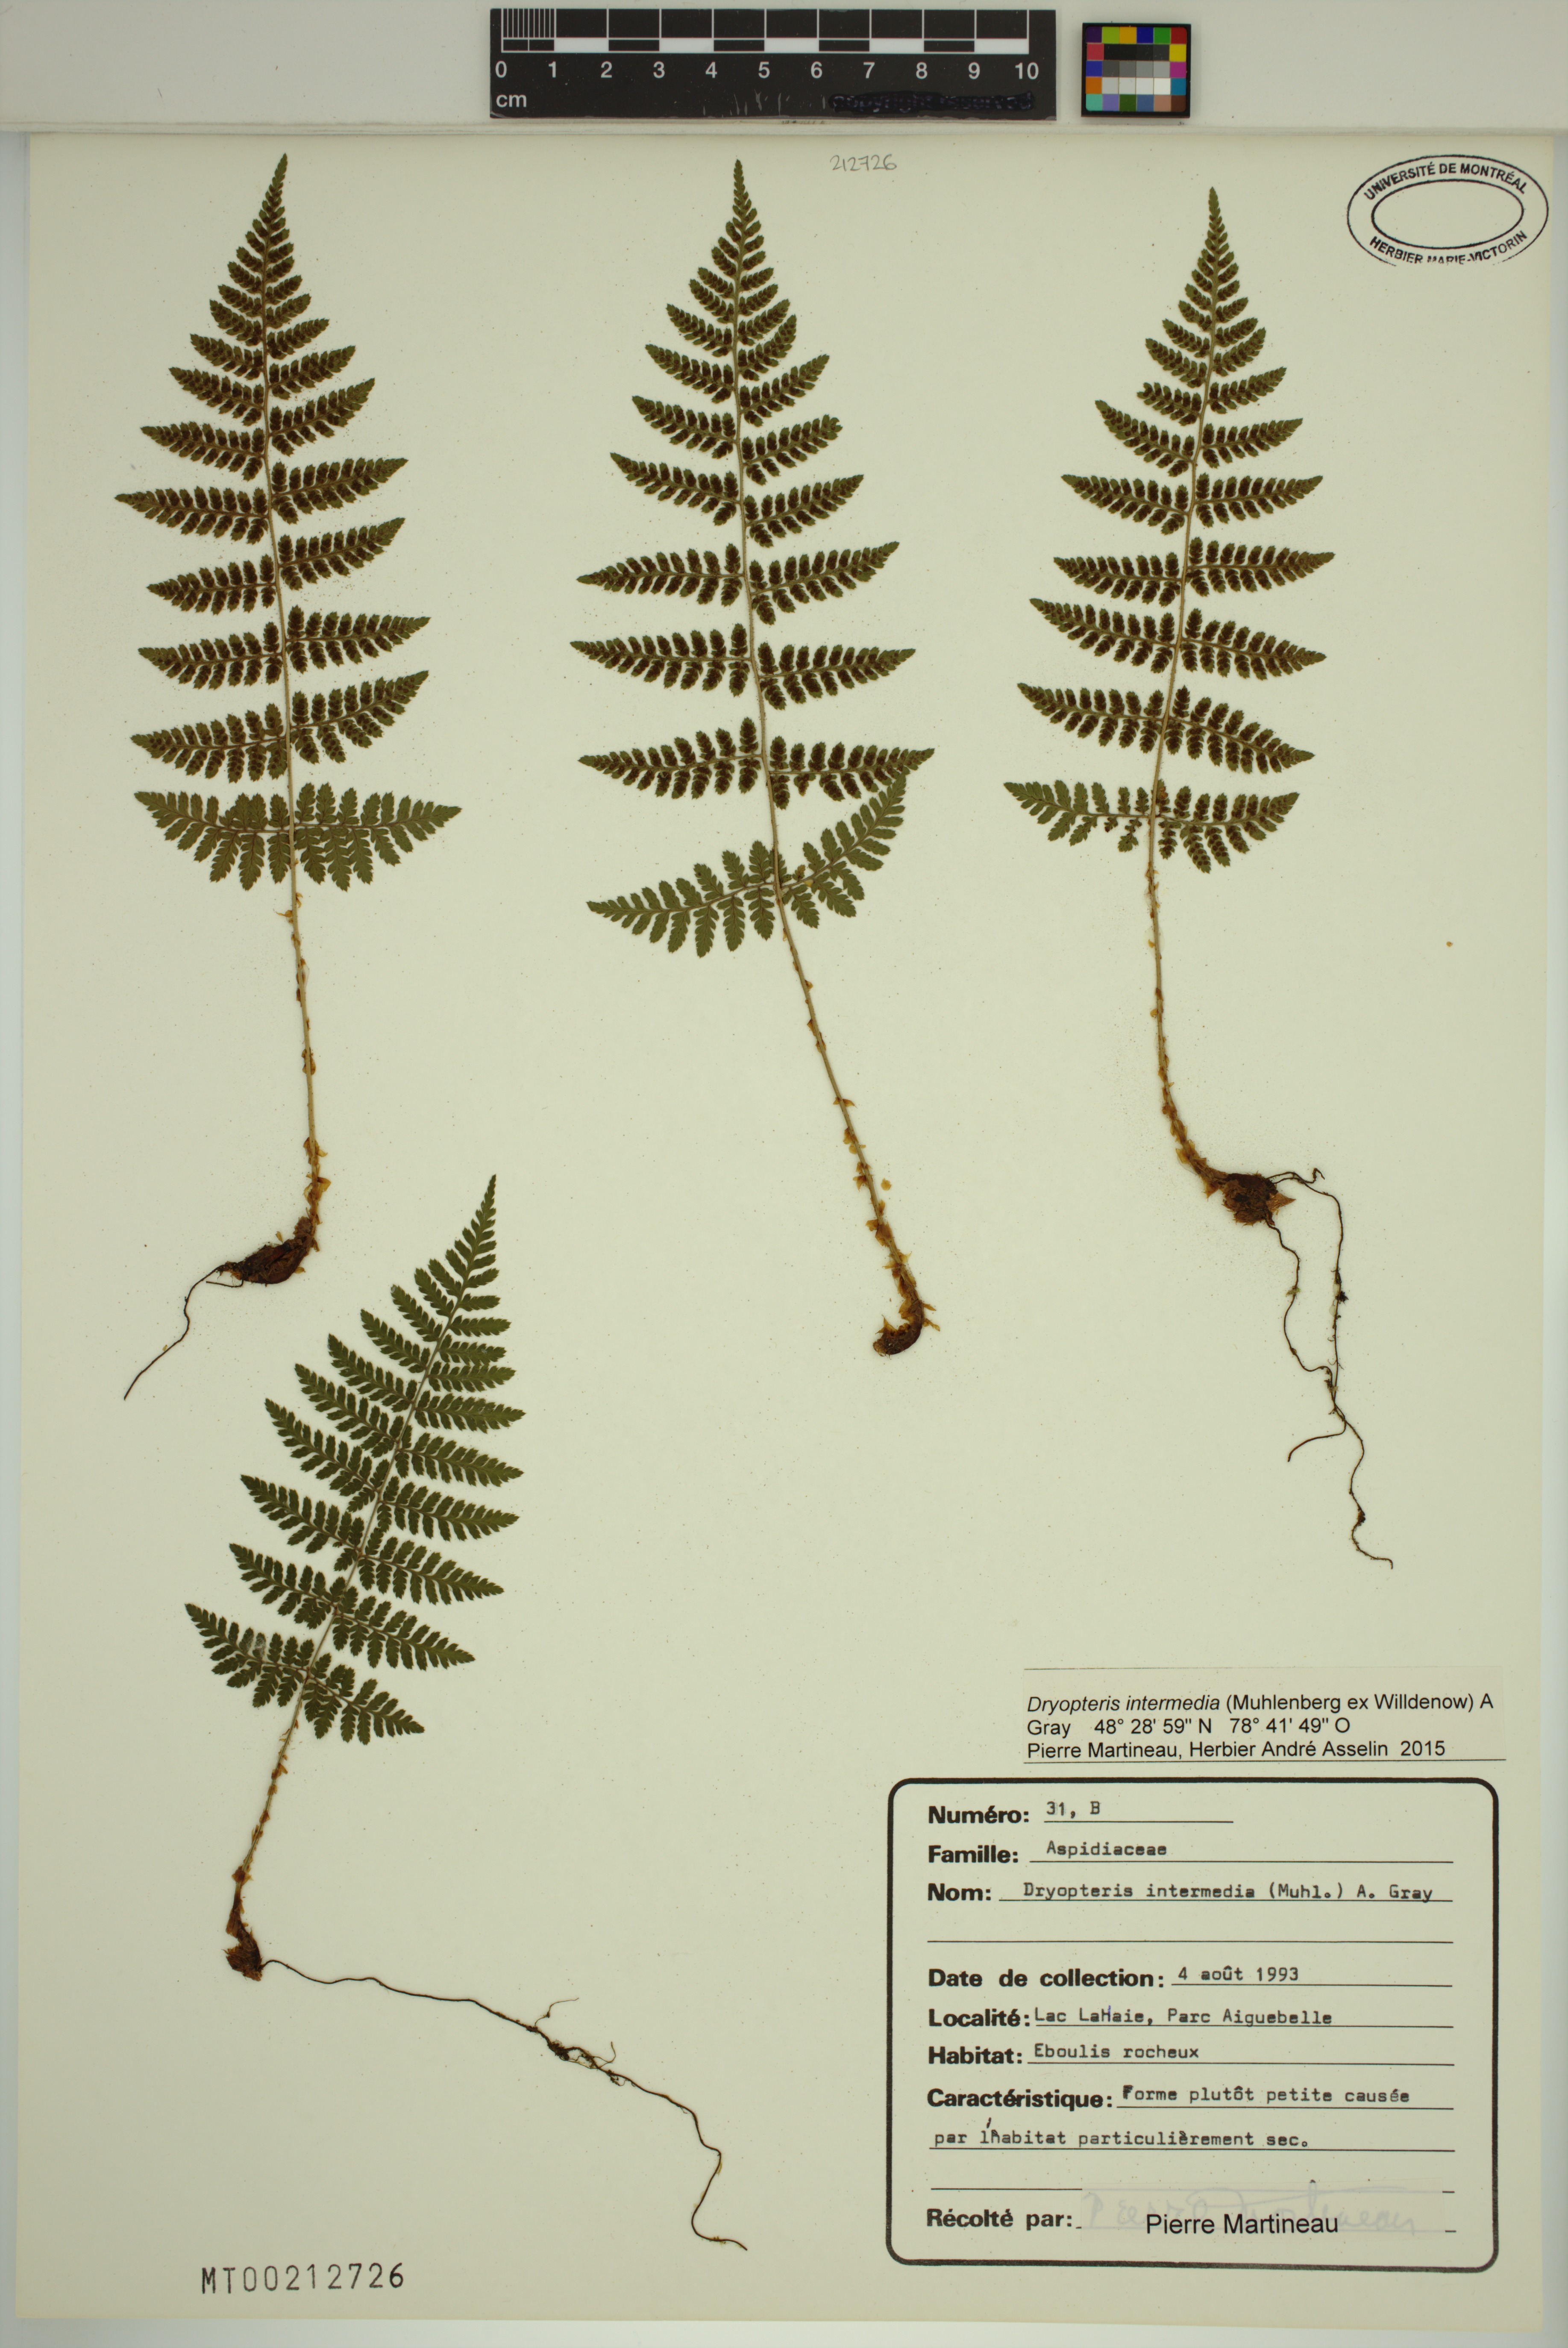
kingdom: Plantae
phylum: Tracheophyta
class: Polypodiopsida
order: Polypodiales
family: Dryopteridaceae
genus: Dryopteris
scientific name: Dryopteris intermedia
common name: Evergreen wood fern
